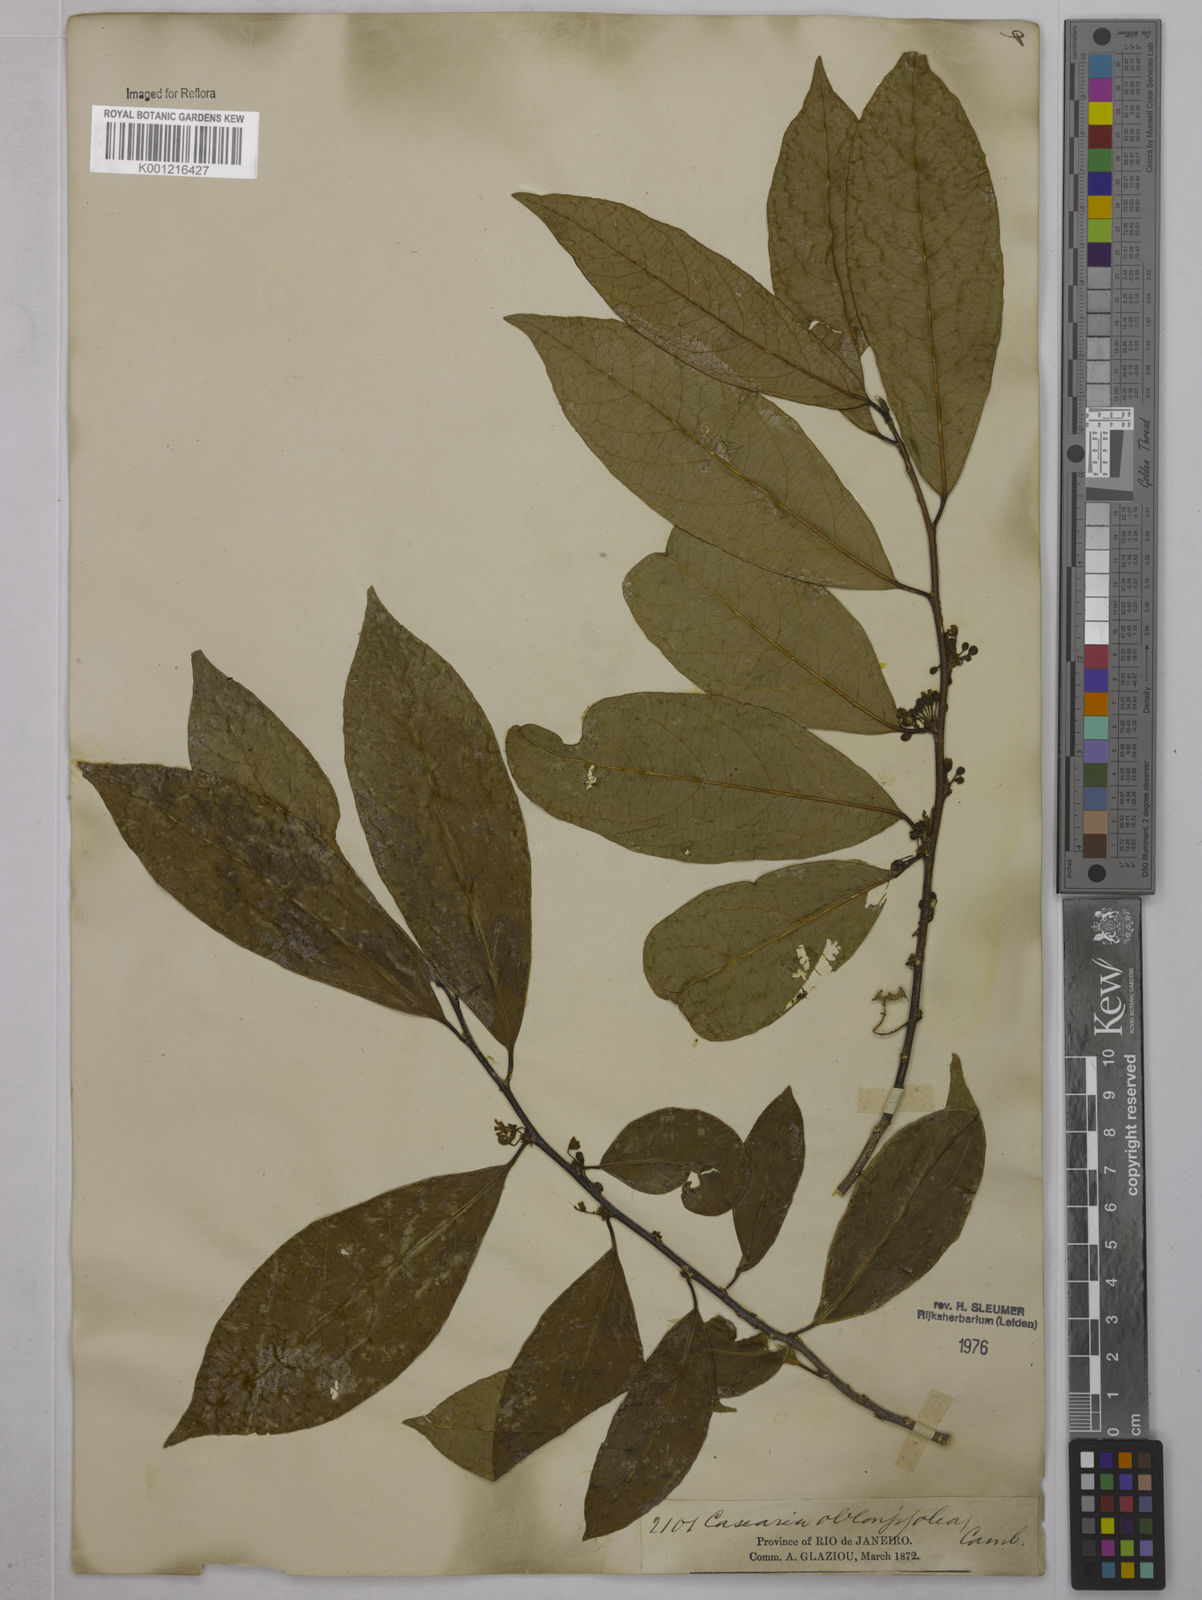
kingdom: Plantae
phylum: Tracheophyta
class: Magnoliopsida
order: Malpighiales
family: Salicaceae
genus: Casearia
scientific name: Casearia oblongifolia
